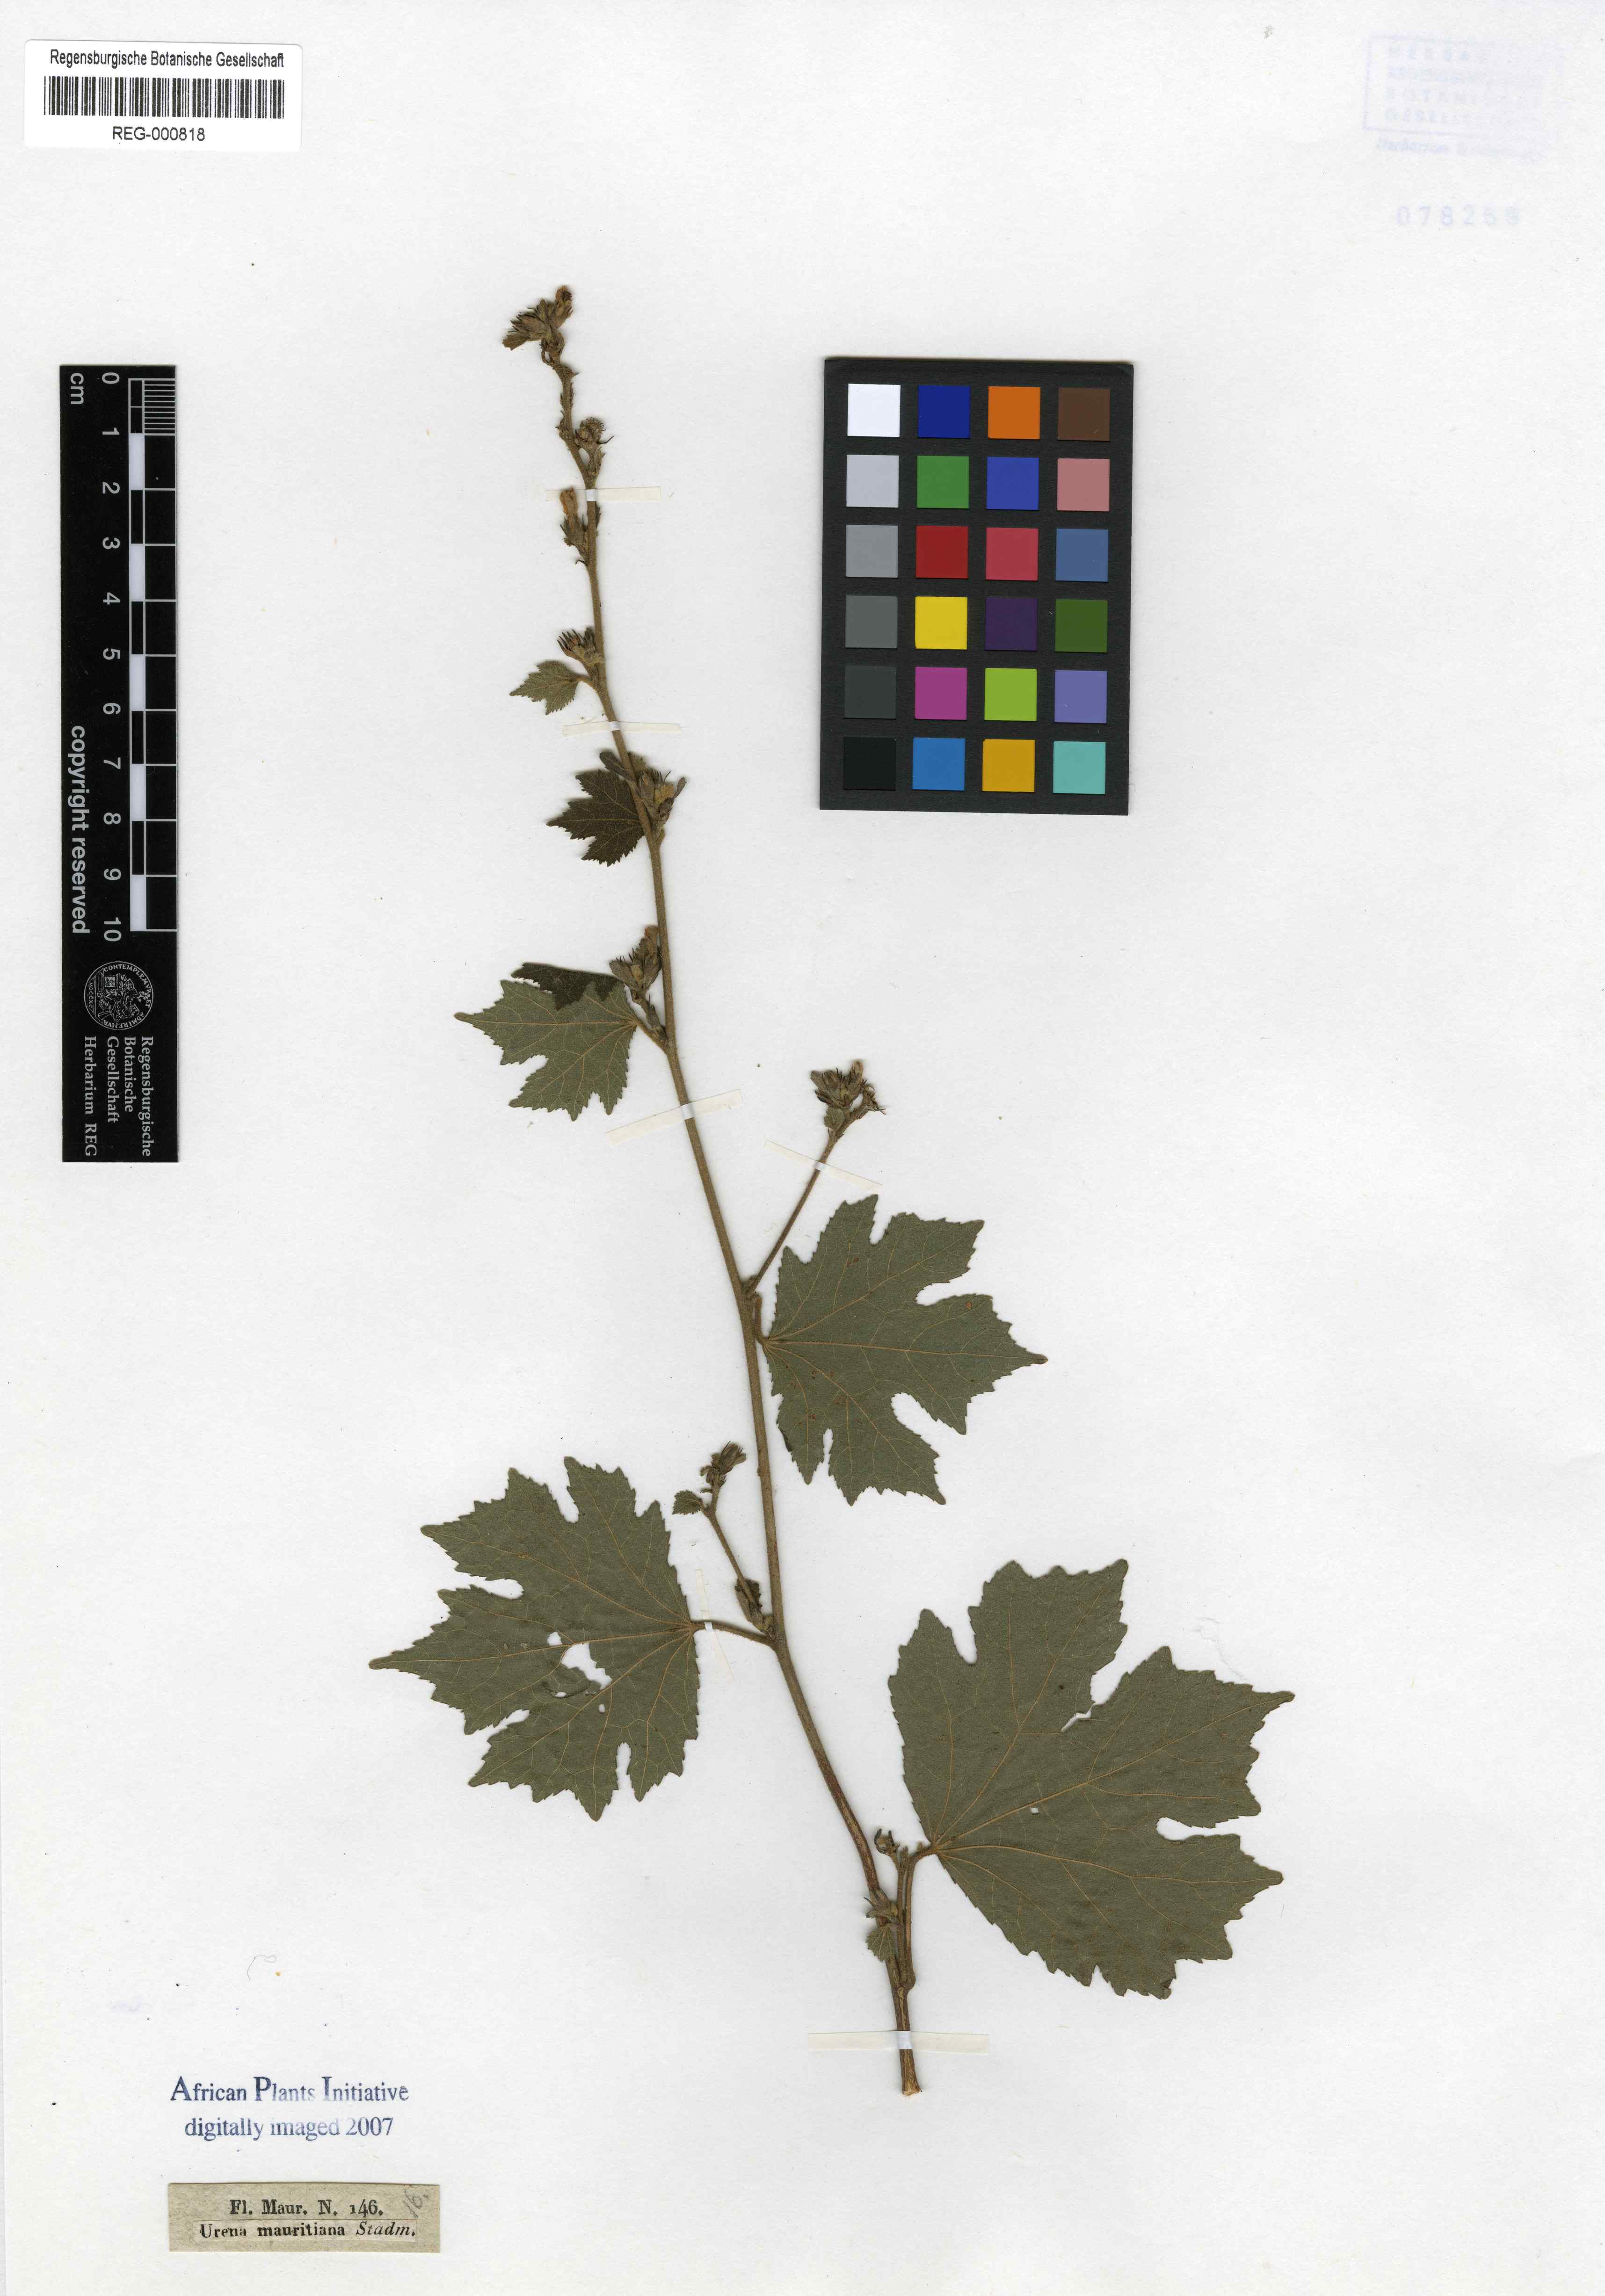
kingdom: Plantae
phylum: Tracheophyta
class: Magnoliopsida
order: Malvales
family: Malvaceae
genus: Urena
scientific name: Urena lobata
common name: Caesarweed
